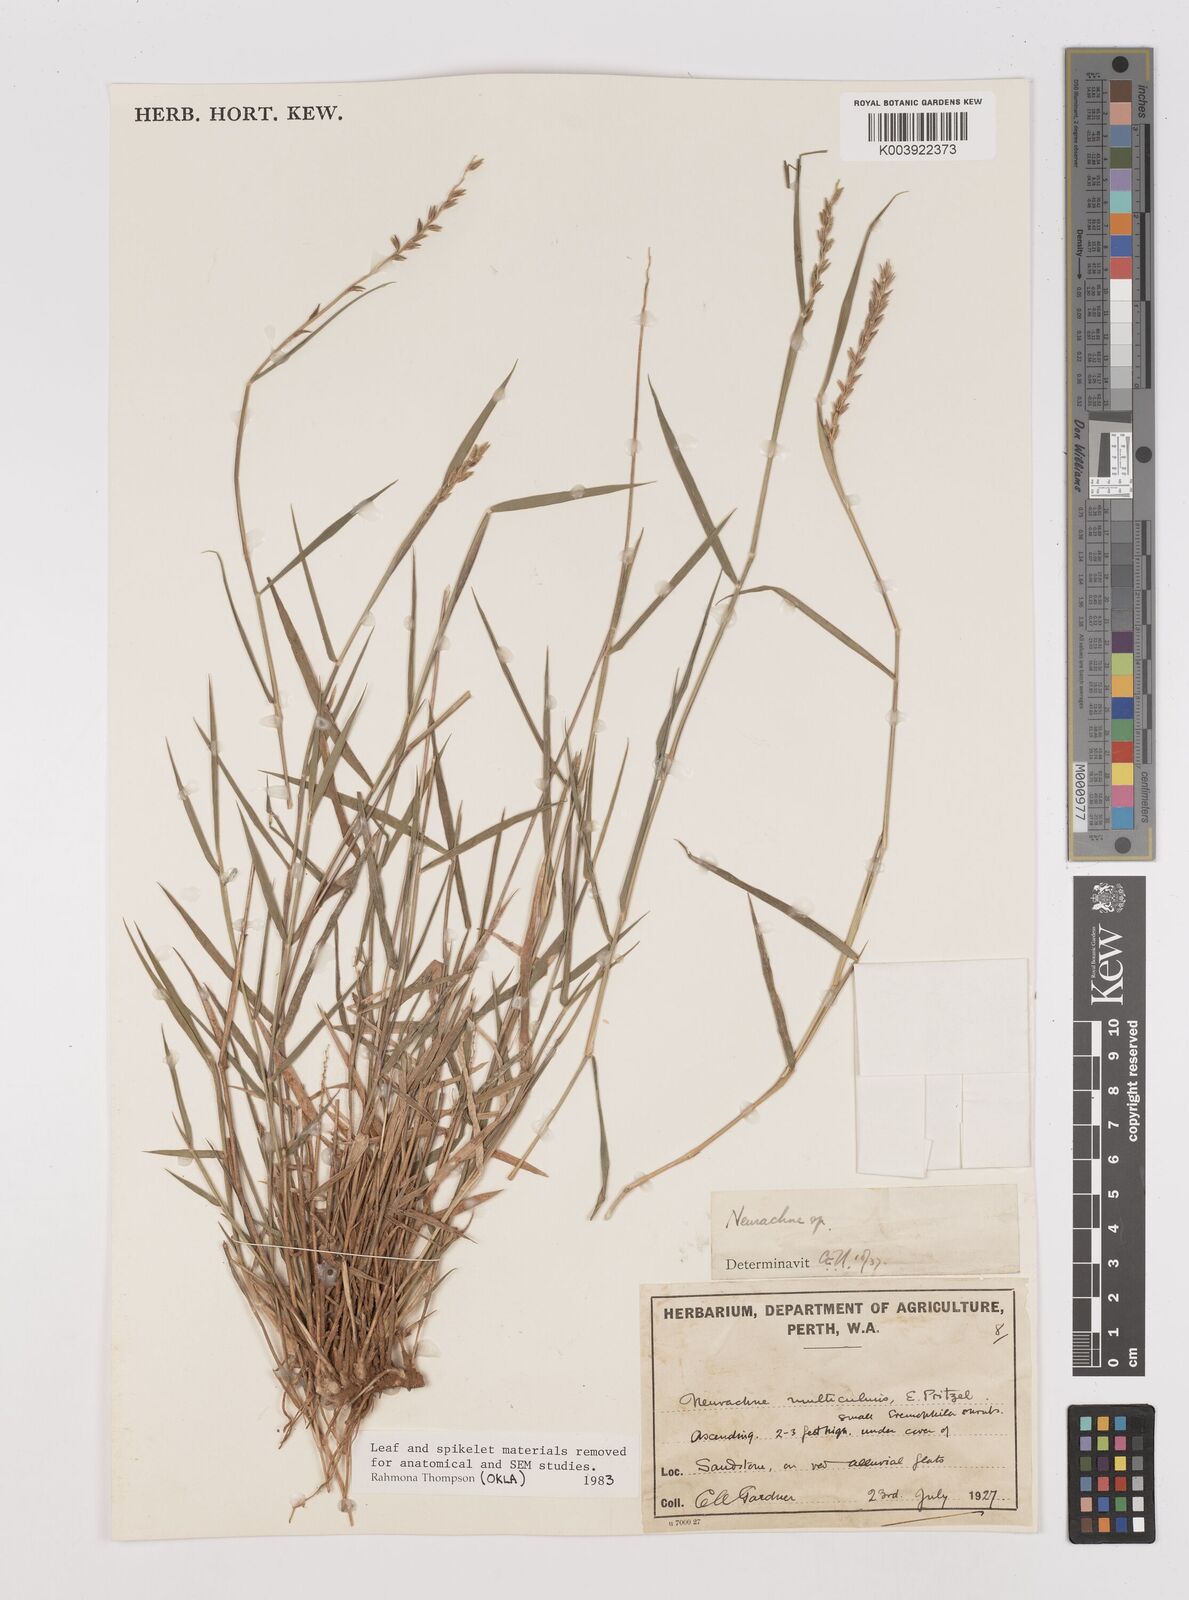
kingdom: Plantae
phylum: Tracheophyta
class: Liliopsida
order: Poales
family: Poaceae
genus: Thyridolepis
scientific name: Thyridolepis mitchelliana
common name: Rock tassel grass
